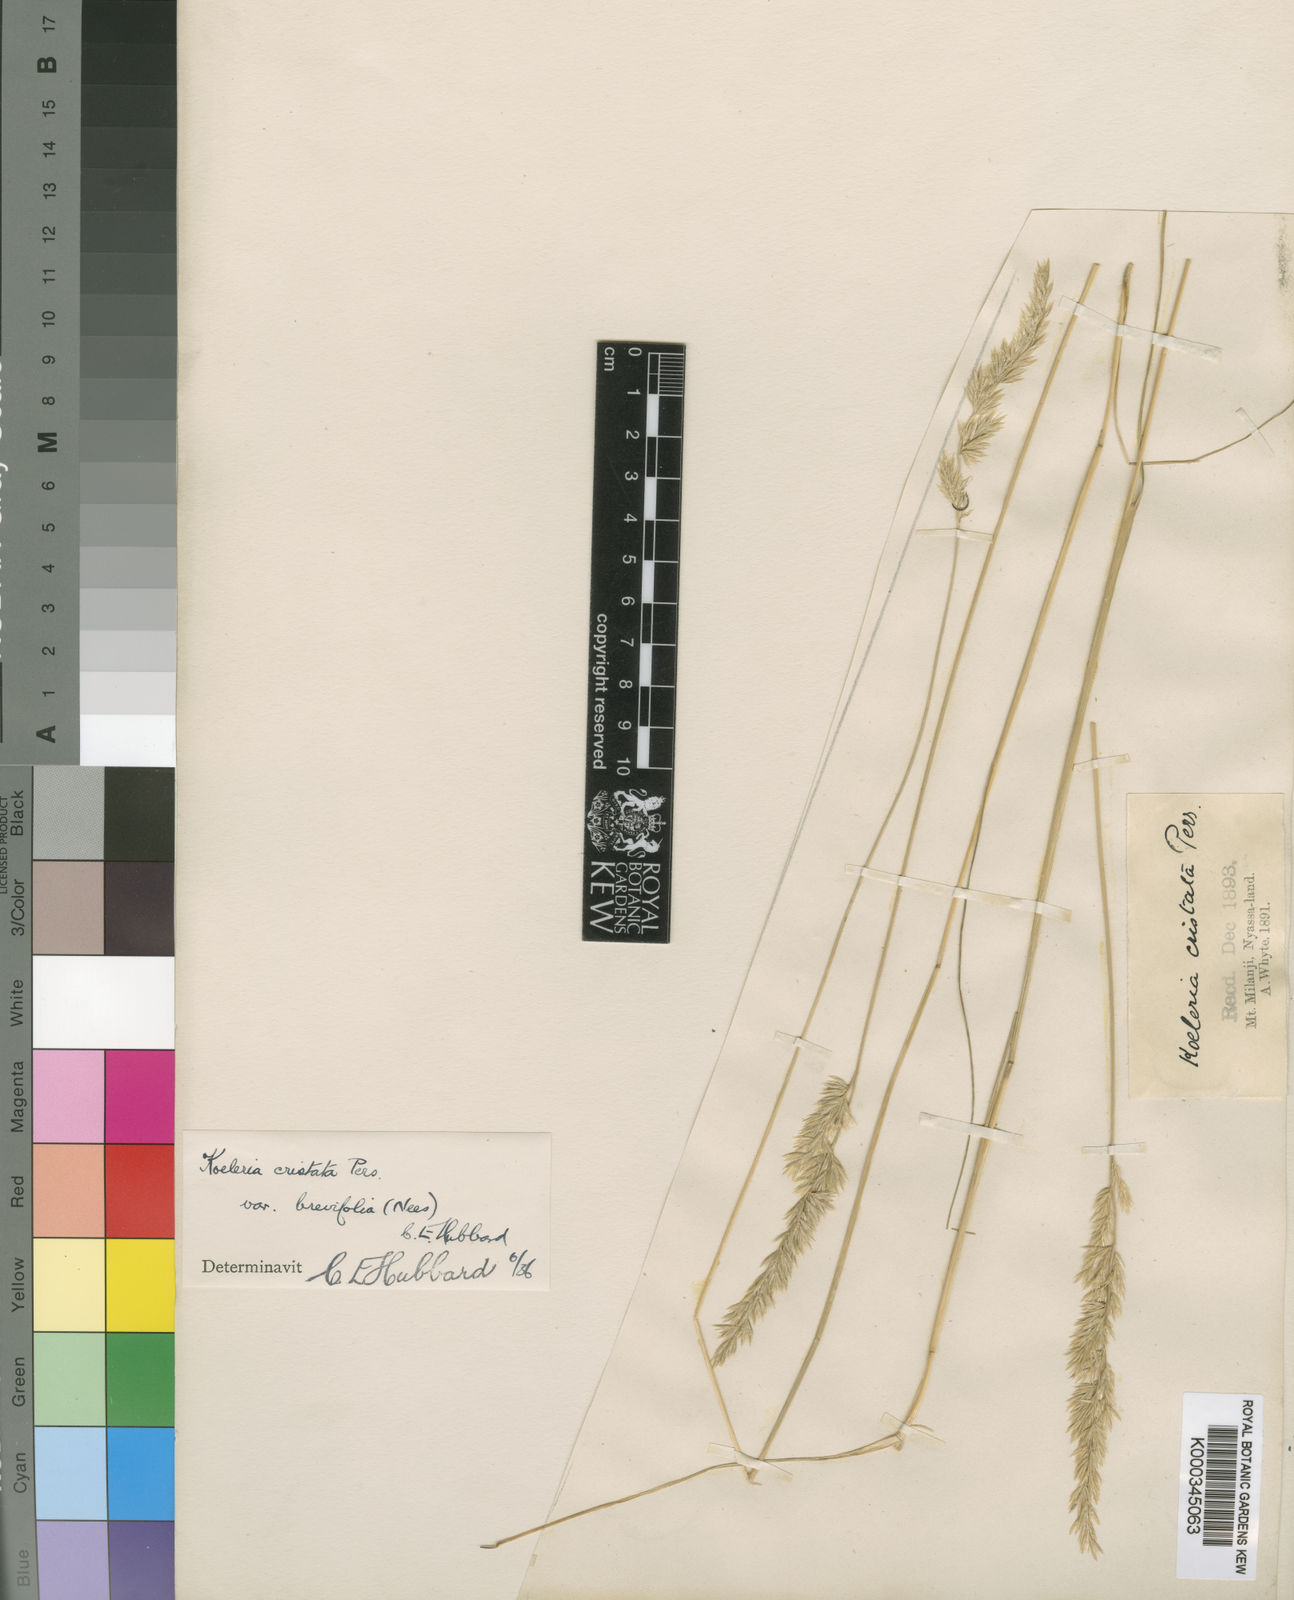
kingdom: Plantae
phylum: Tracheophyta
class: Liliopsida
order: Poales
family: Poaceae
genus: Koeleria
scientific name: Koeleria capensis
